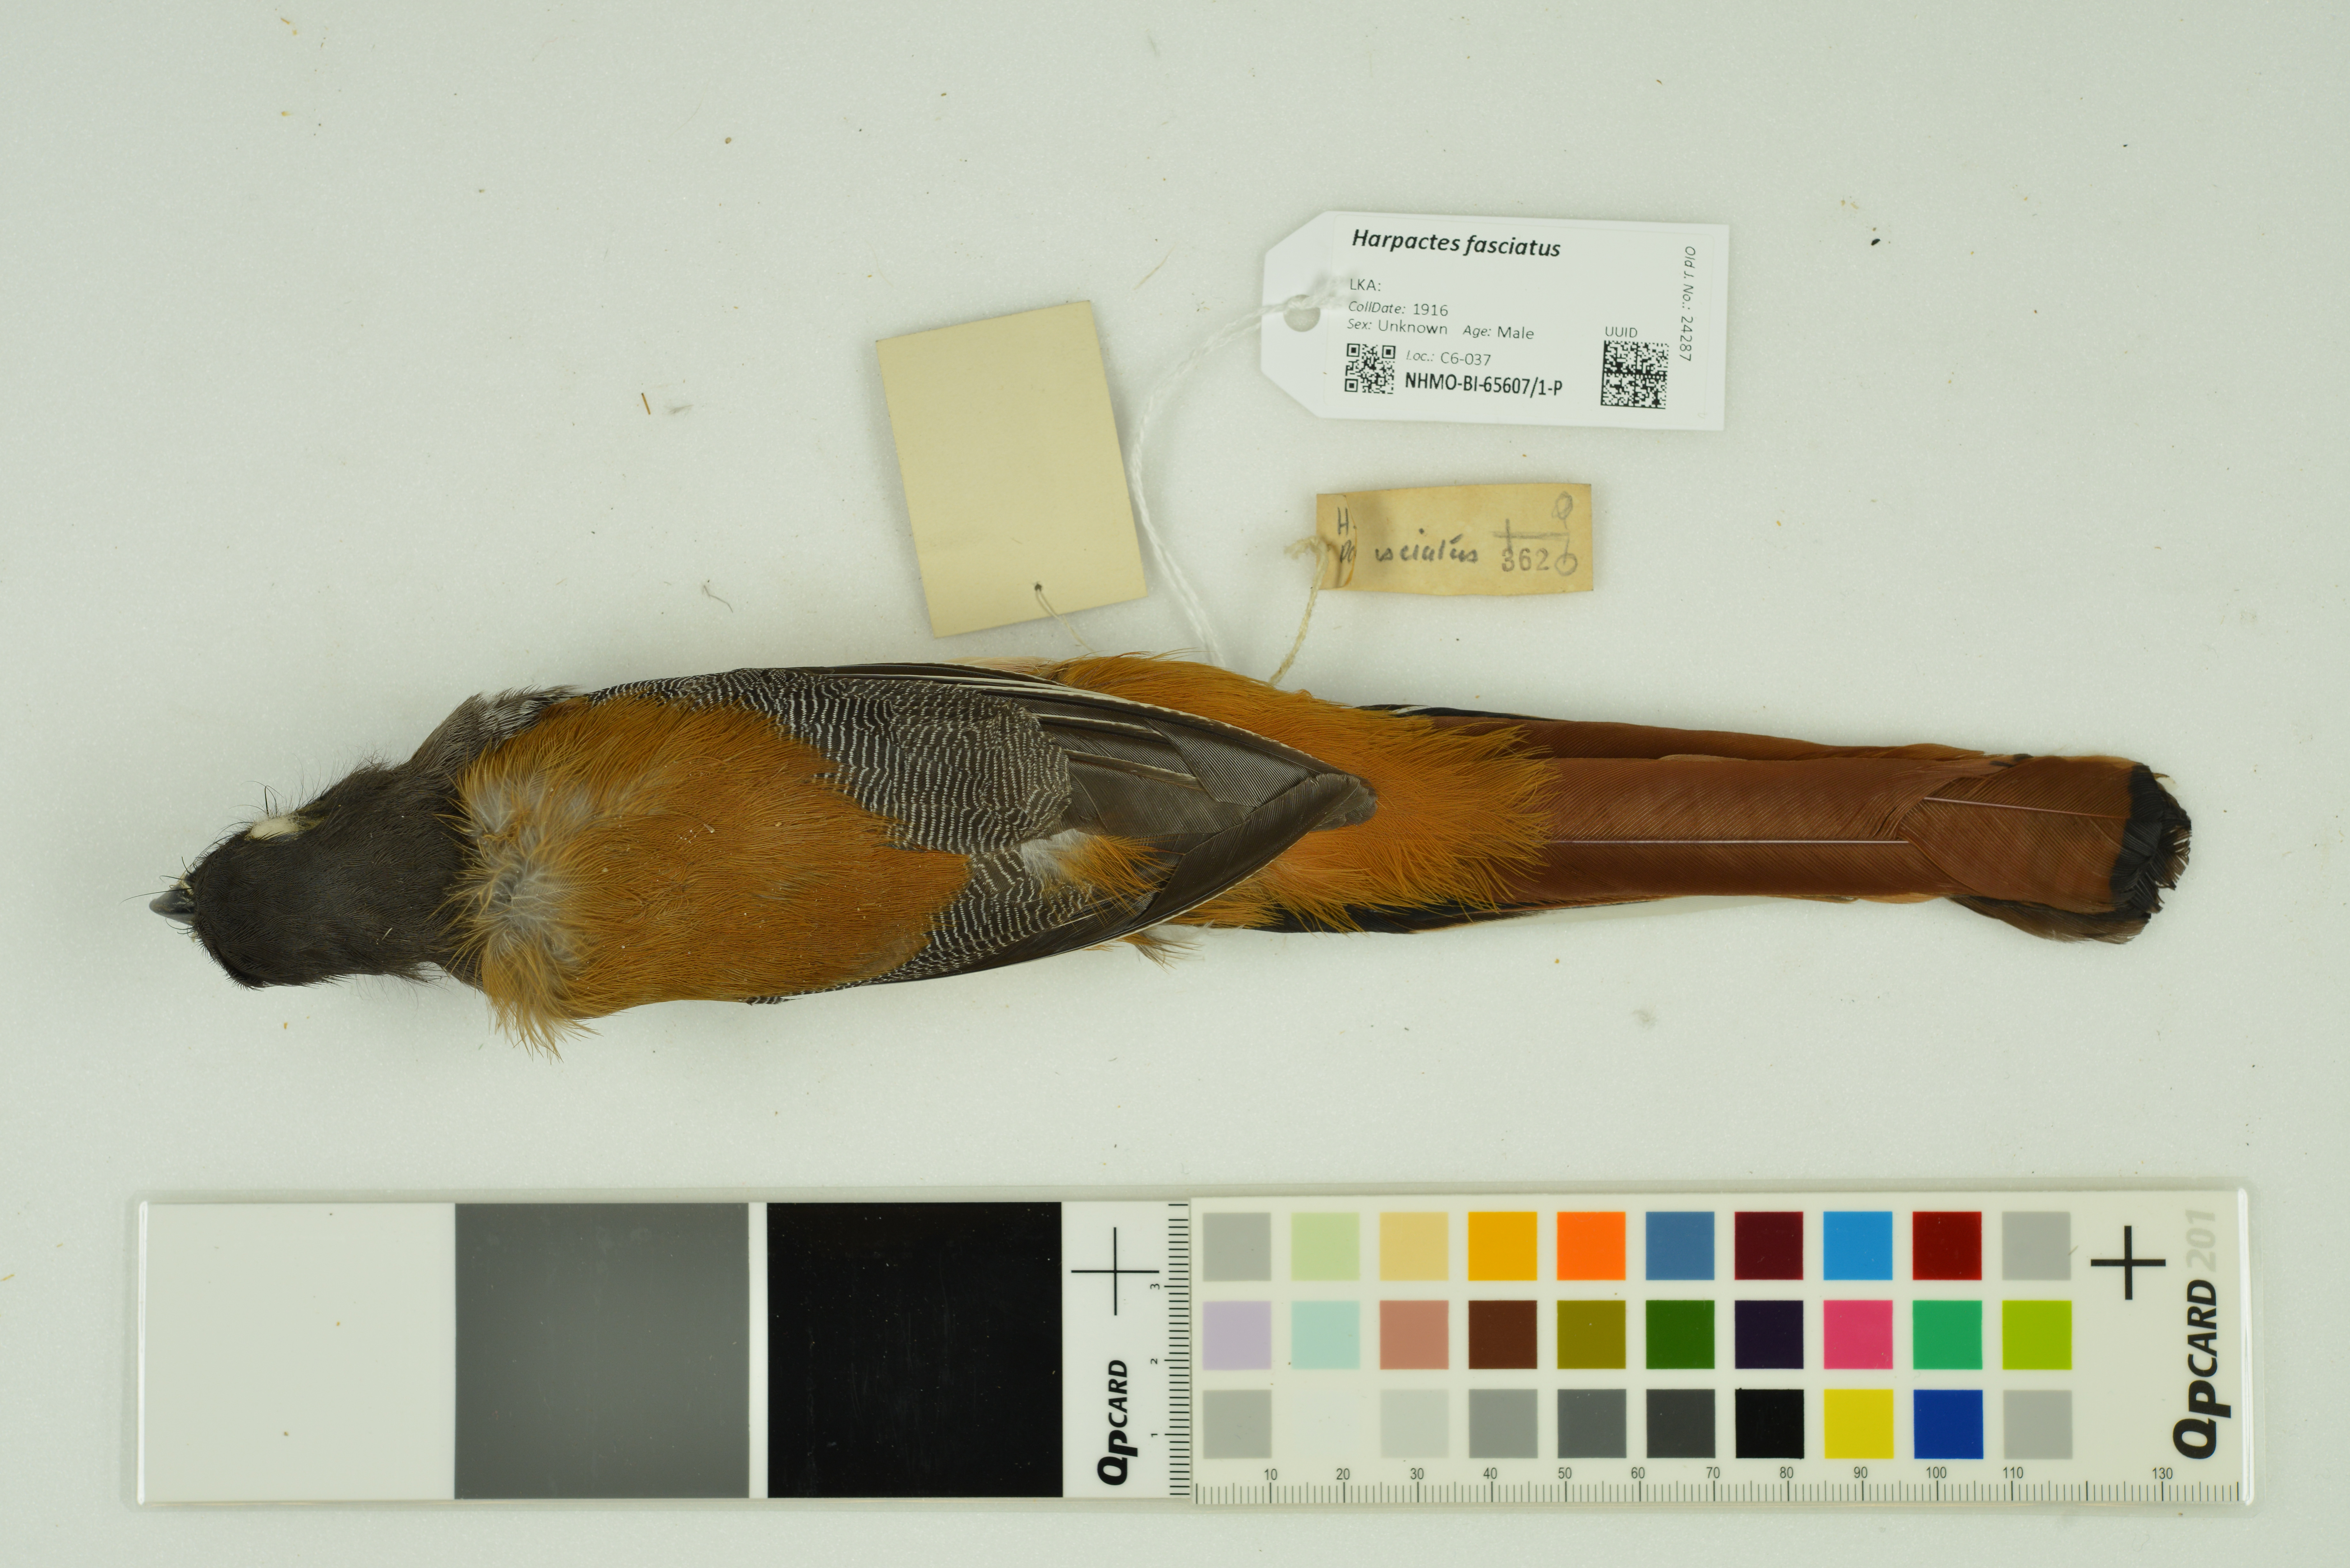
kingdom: Animalia
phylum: Chordata
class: Aves
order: Trogoniformes
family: Trogonidae
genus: Harpactes
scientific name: Harpactes fasciatus
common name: Malabar trogon
